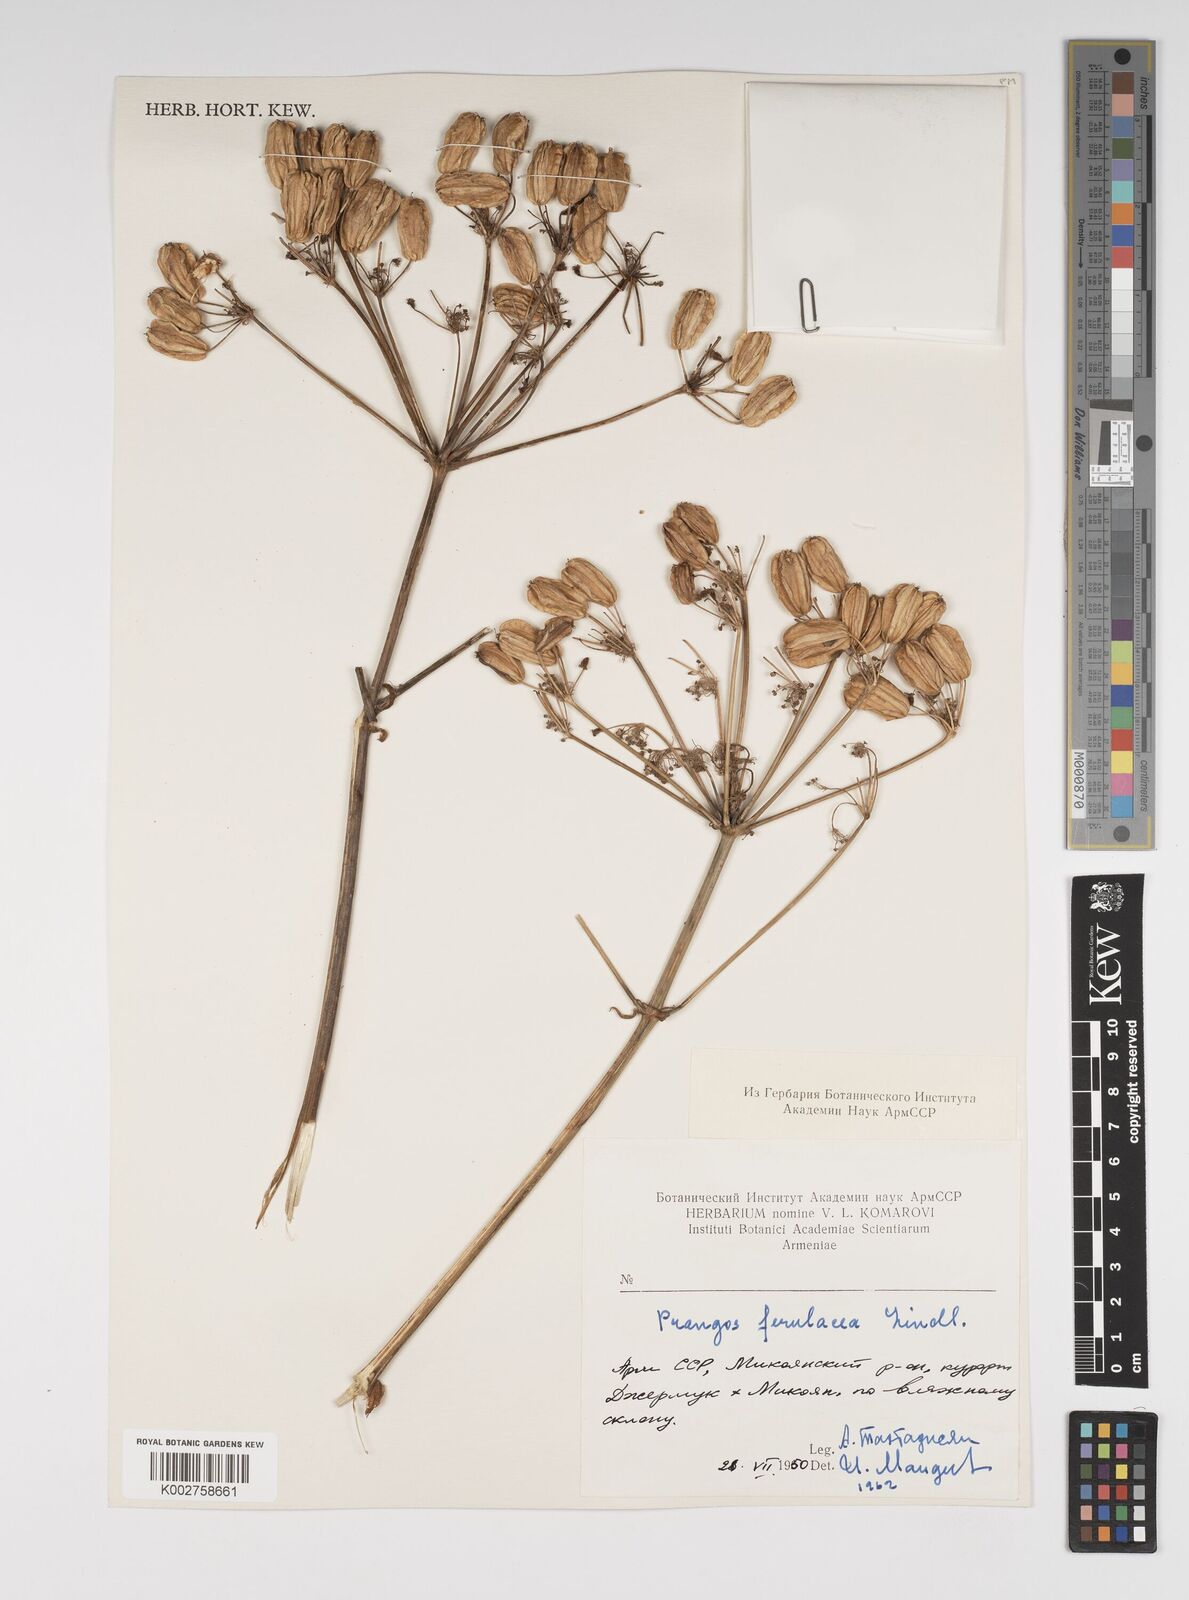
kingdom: Plantae
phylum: Tracheophyta
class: Magnoliopsida
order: Apiales
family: Apiaceae
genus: Prangos
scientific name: Prangos ferulacea
